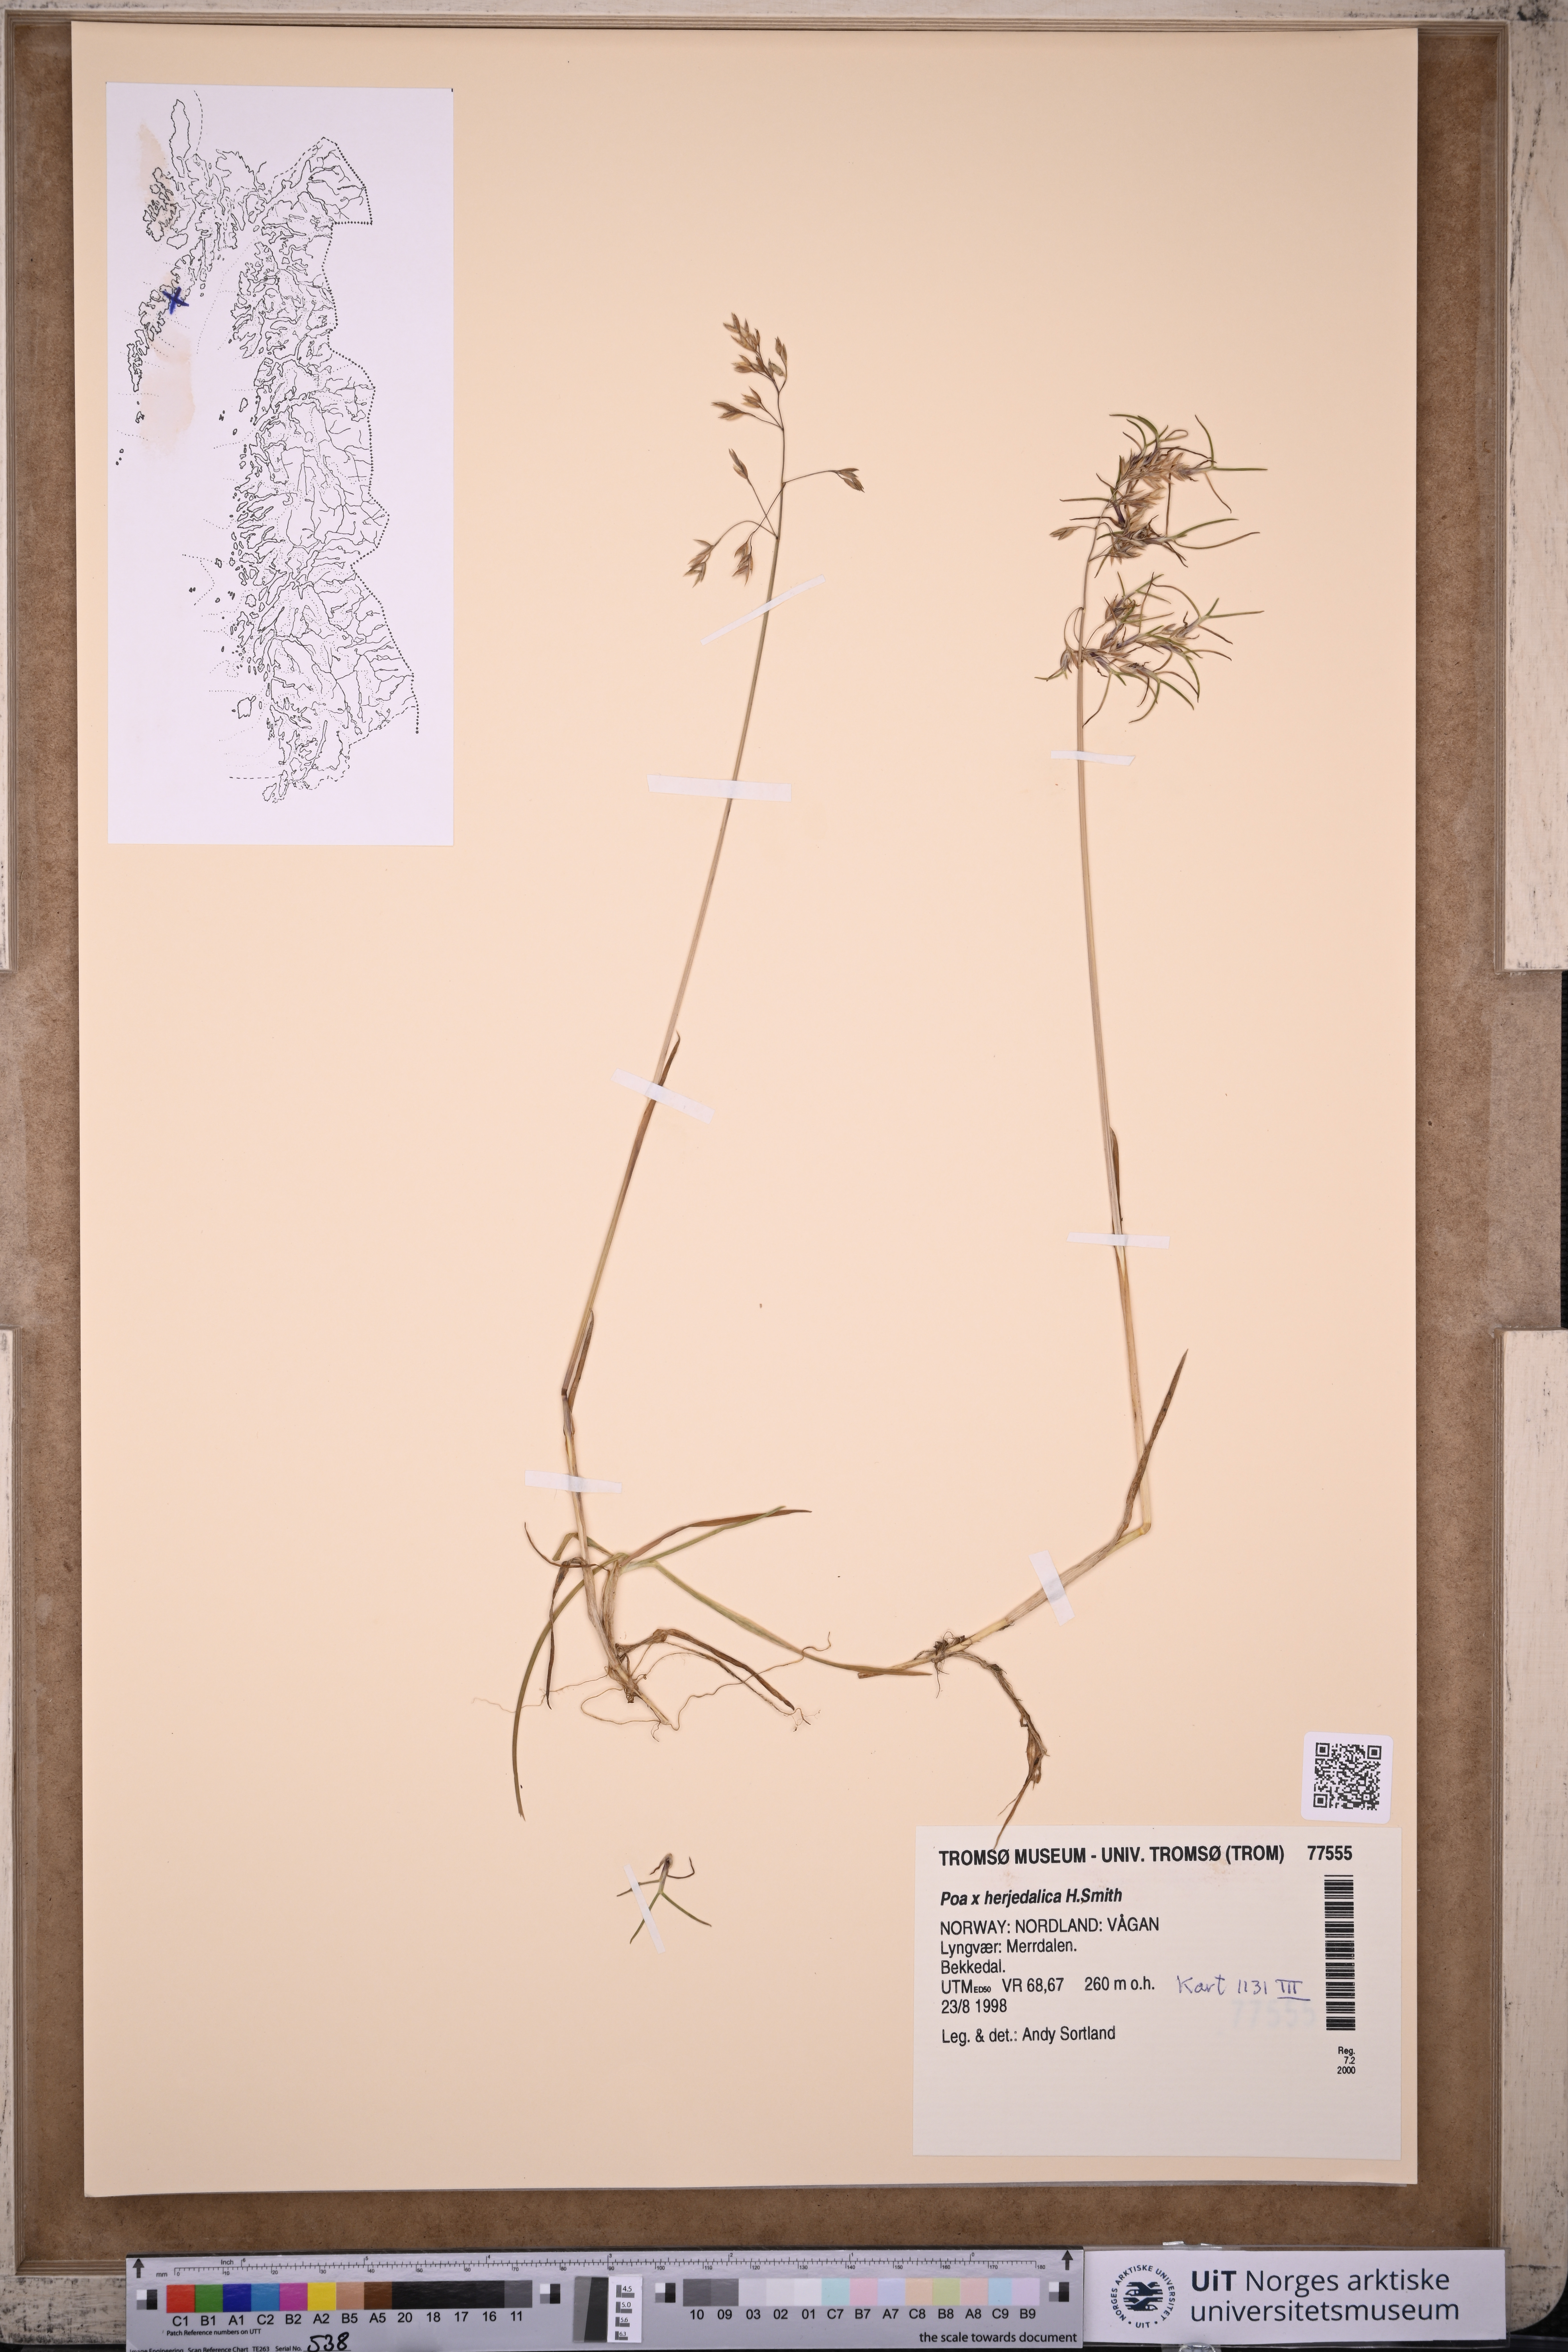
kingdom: Plantae
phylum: Tracheophyta
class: Liliopsida
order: Poales
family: Poaceae
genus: Poa
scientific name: Poa herjedalica
